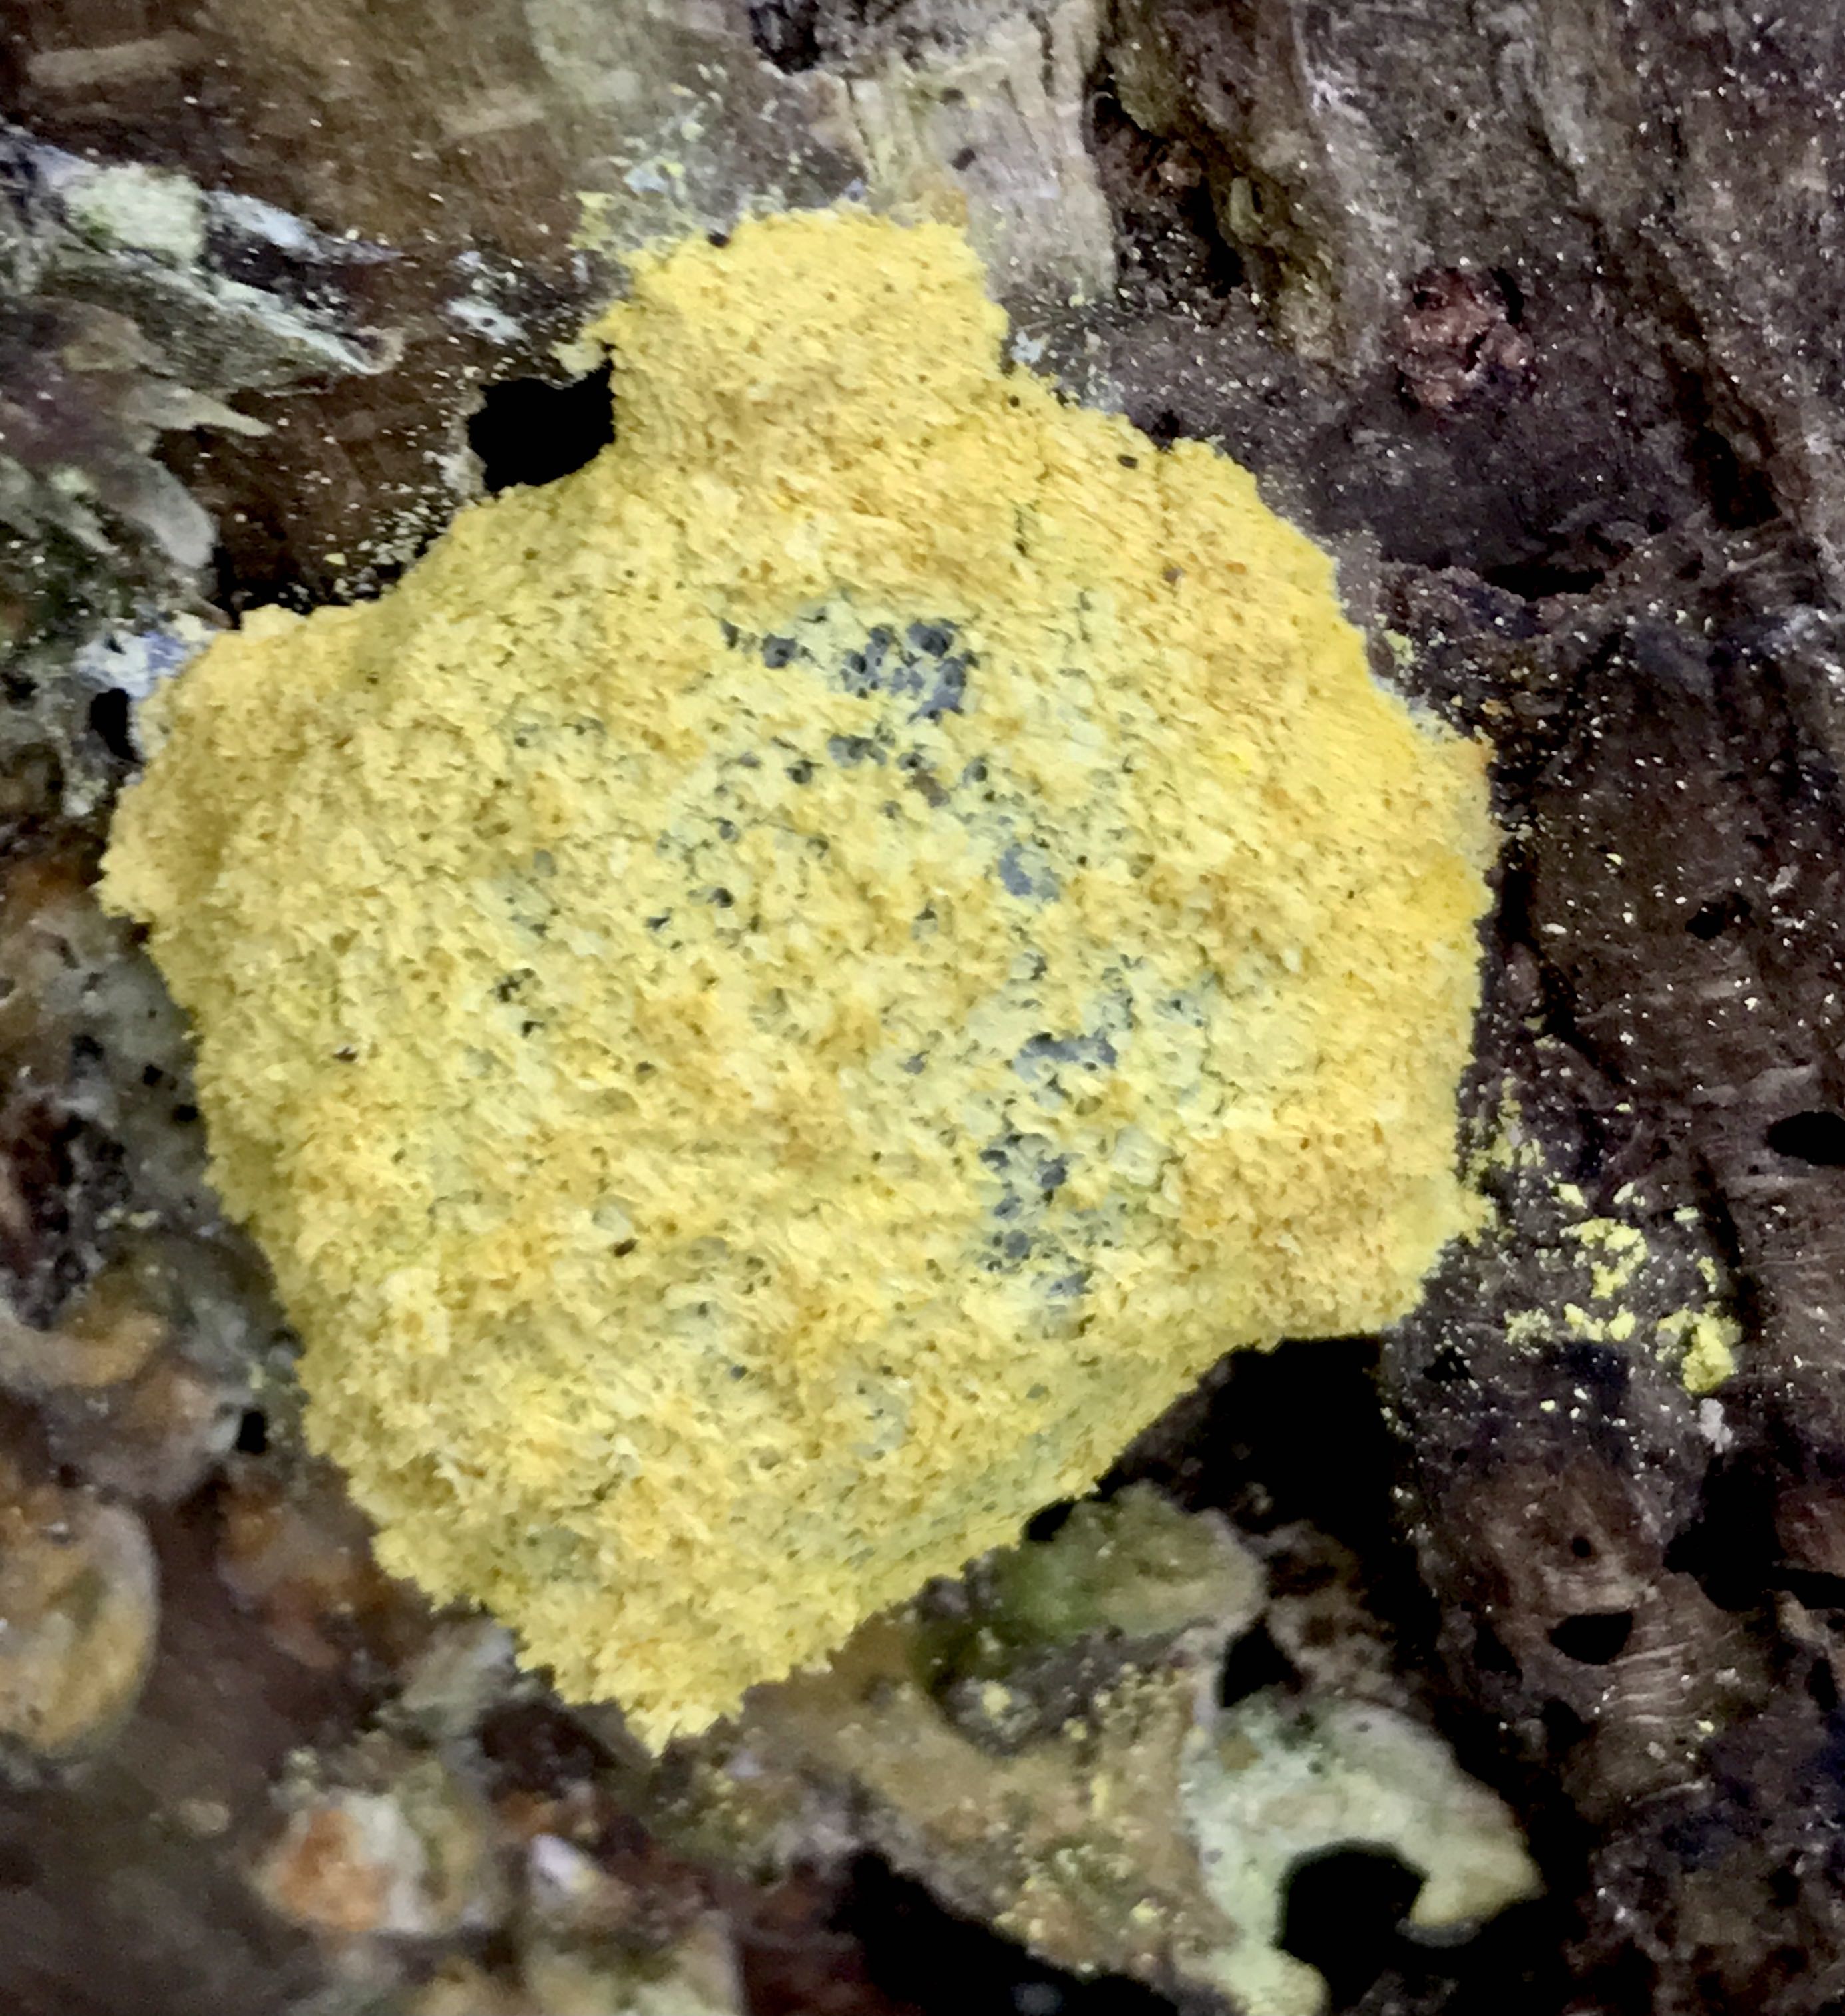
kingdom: Protozoa
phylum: Mycetozoa
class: Myxomycetes
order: Physarales
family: Physaraceae
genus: Fuligo
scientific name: Fuligo septica
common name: gul troldsmør
